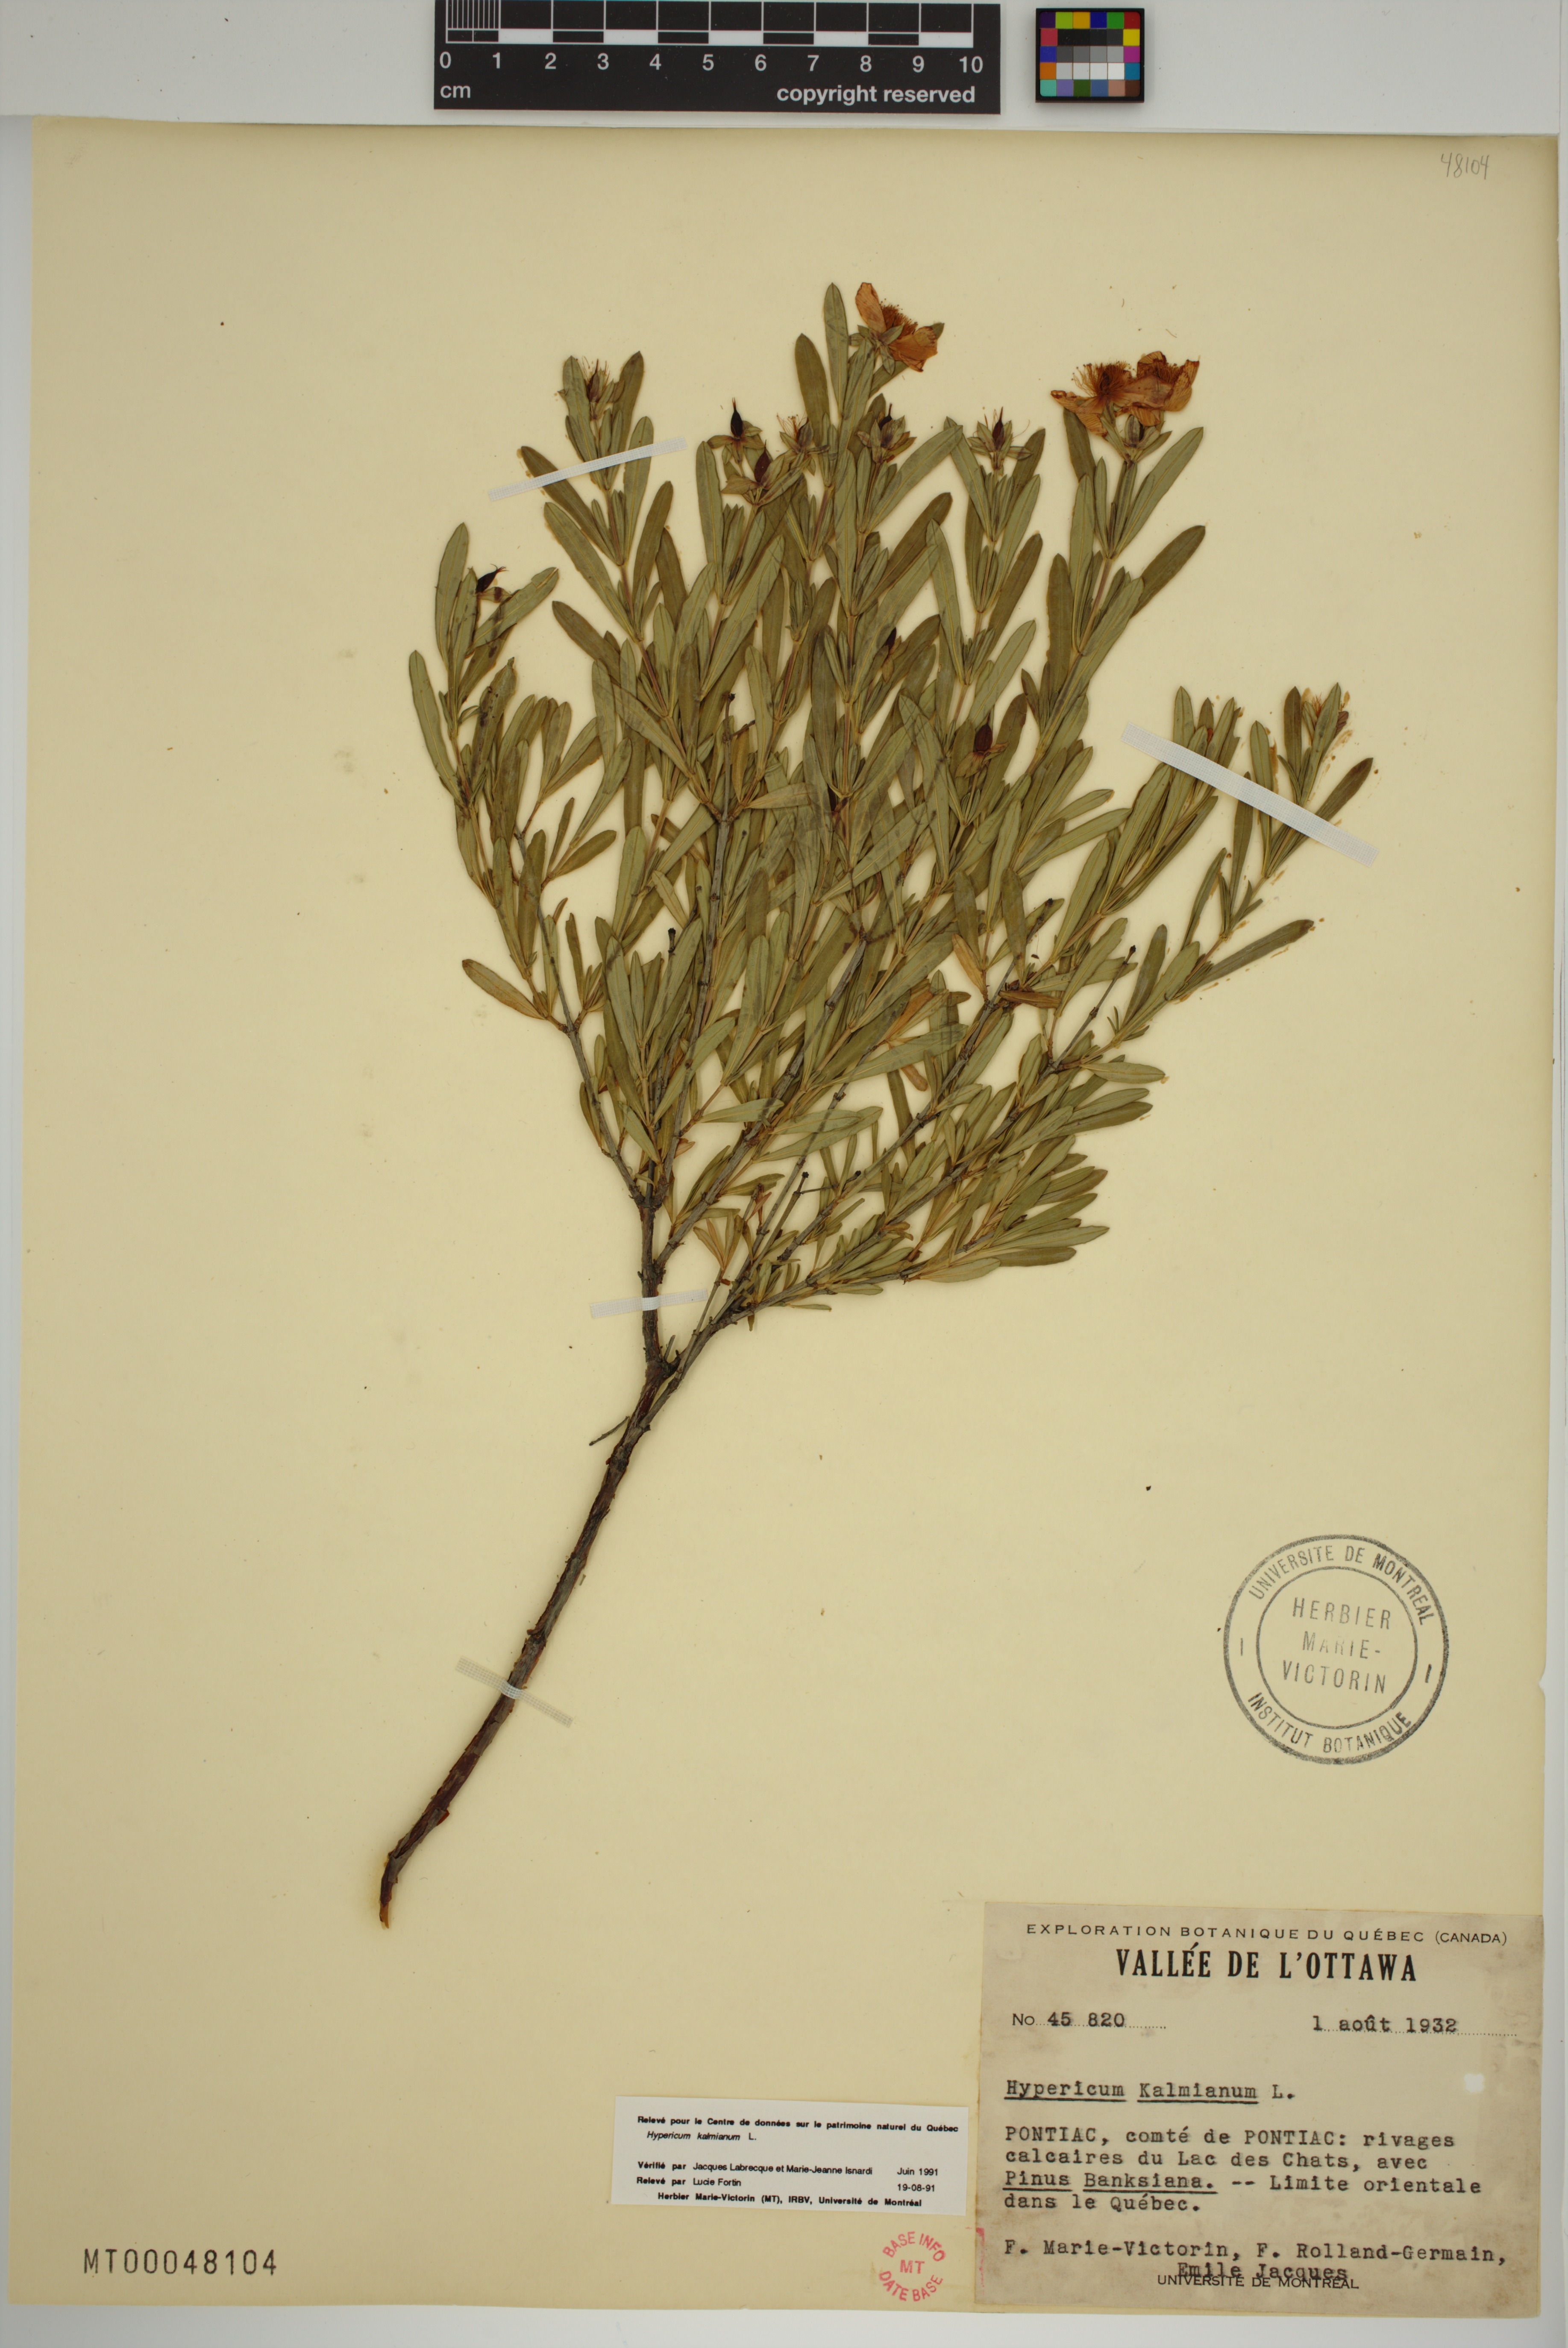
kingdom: Plantae
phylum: Tracheophyta
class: Magnoliopsida
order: Malpighiales
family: Hypericaceae
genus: Hypericum
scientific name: Hypericum kalmianum
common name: Kalm's st. john's-wort
